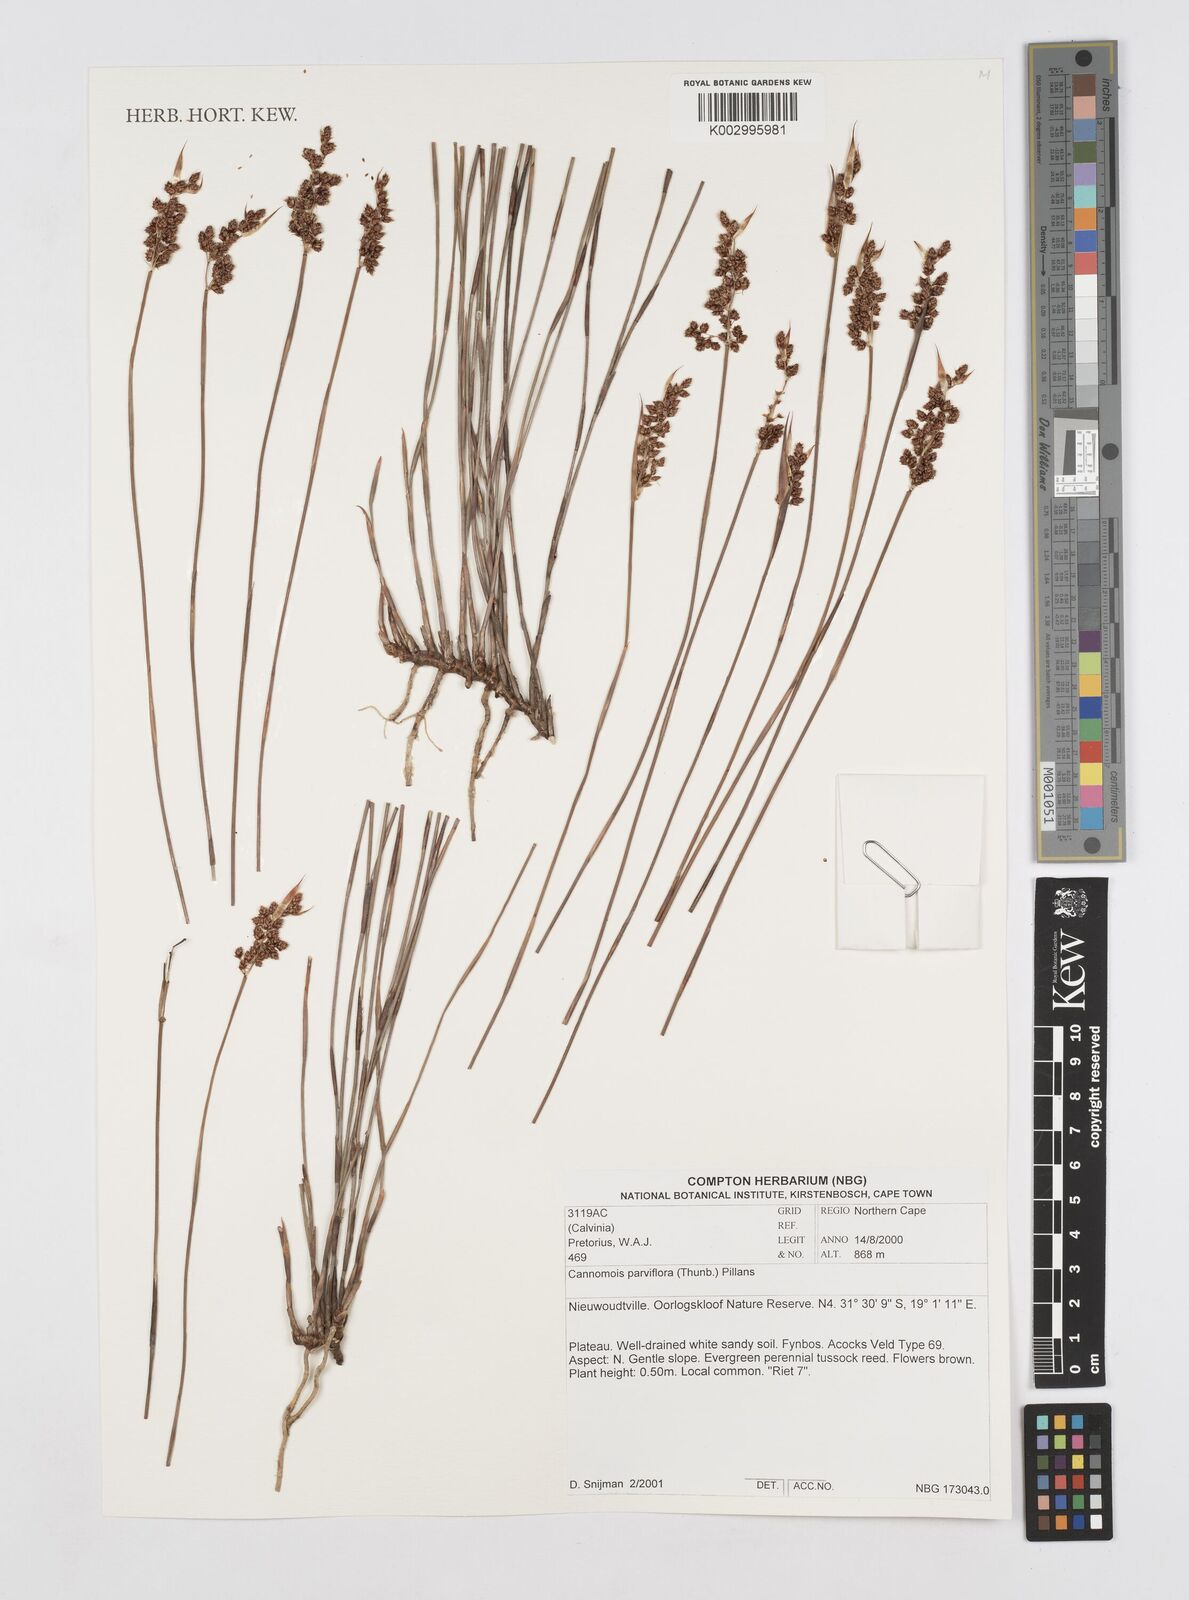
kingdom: Plantae
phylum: Tracheophyta
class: Liliopsida
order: Poales
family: Restionaceae
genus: Cannomois
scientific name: Cannomois parviflora
